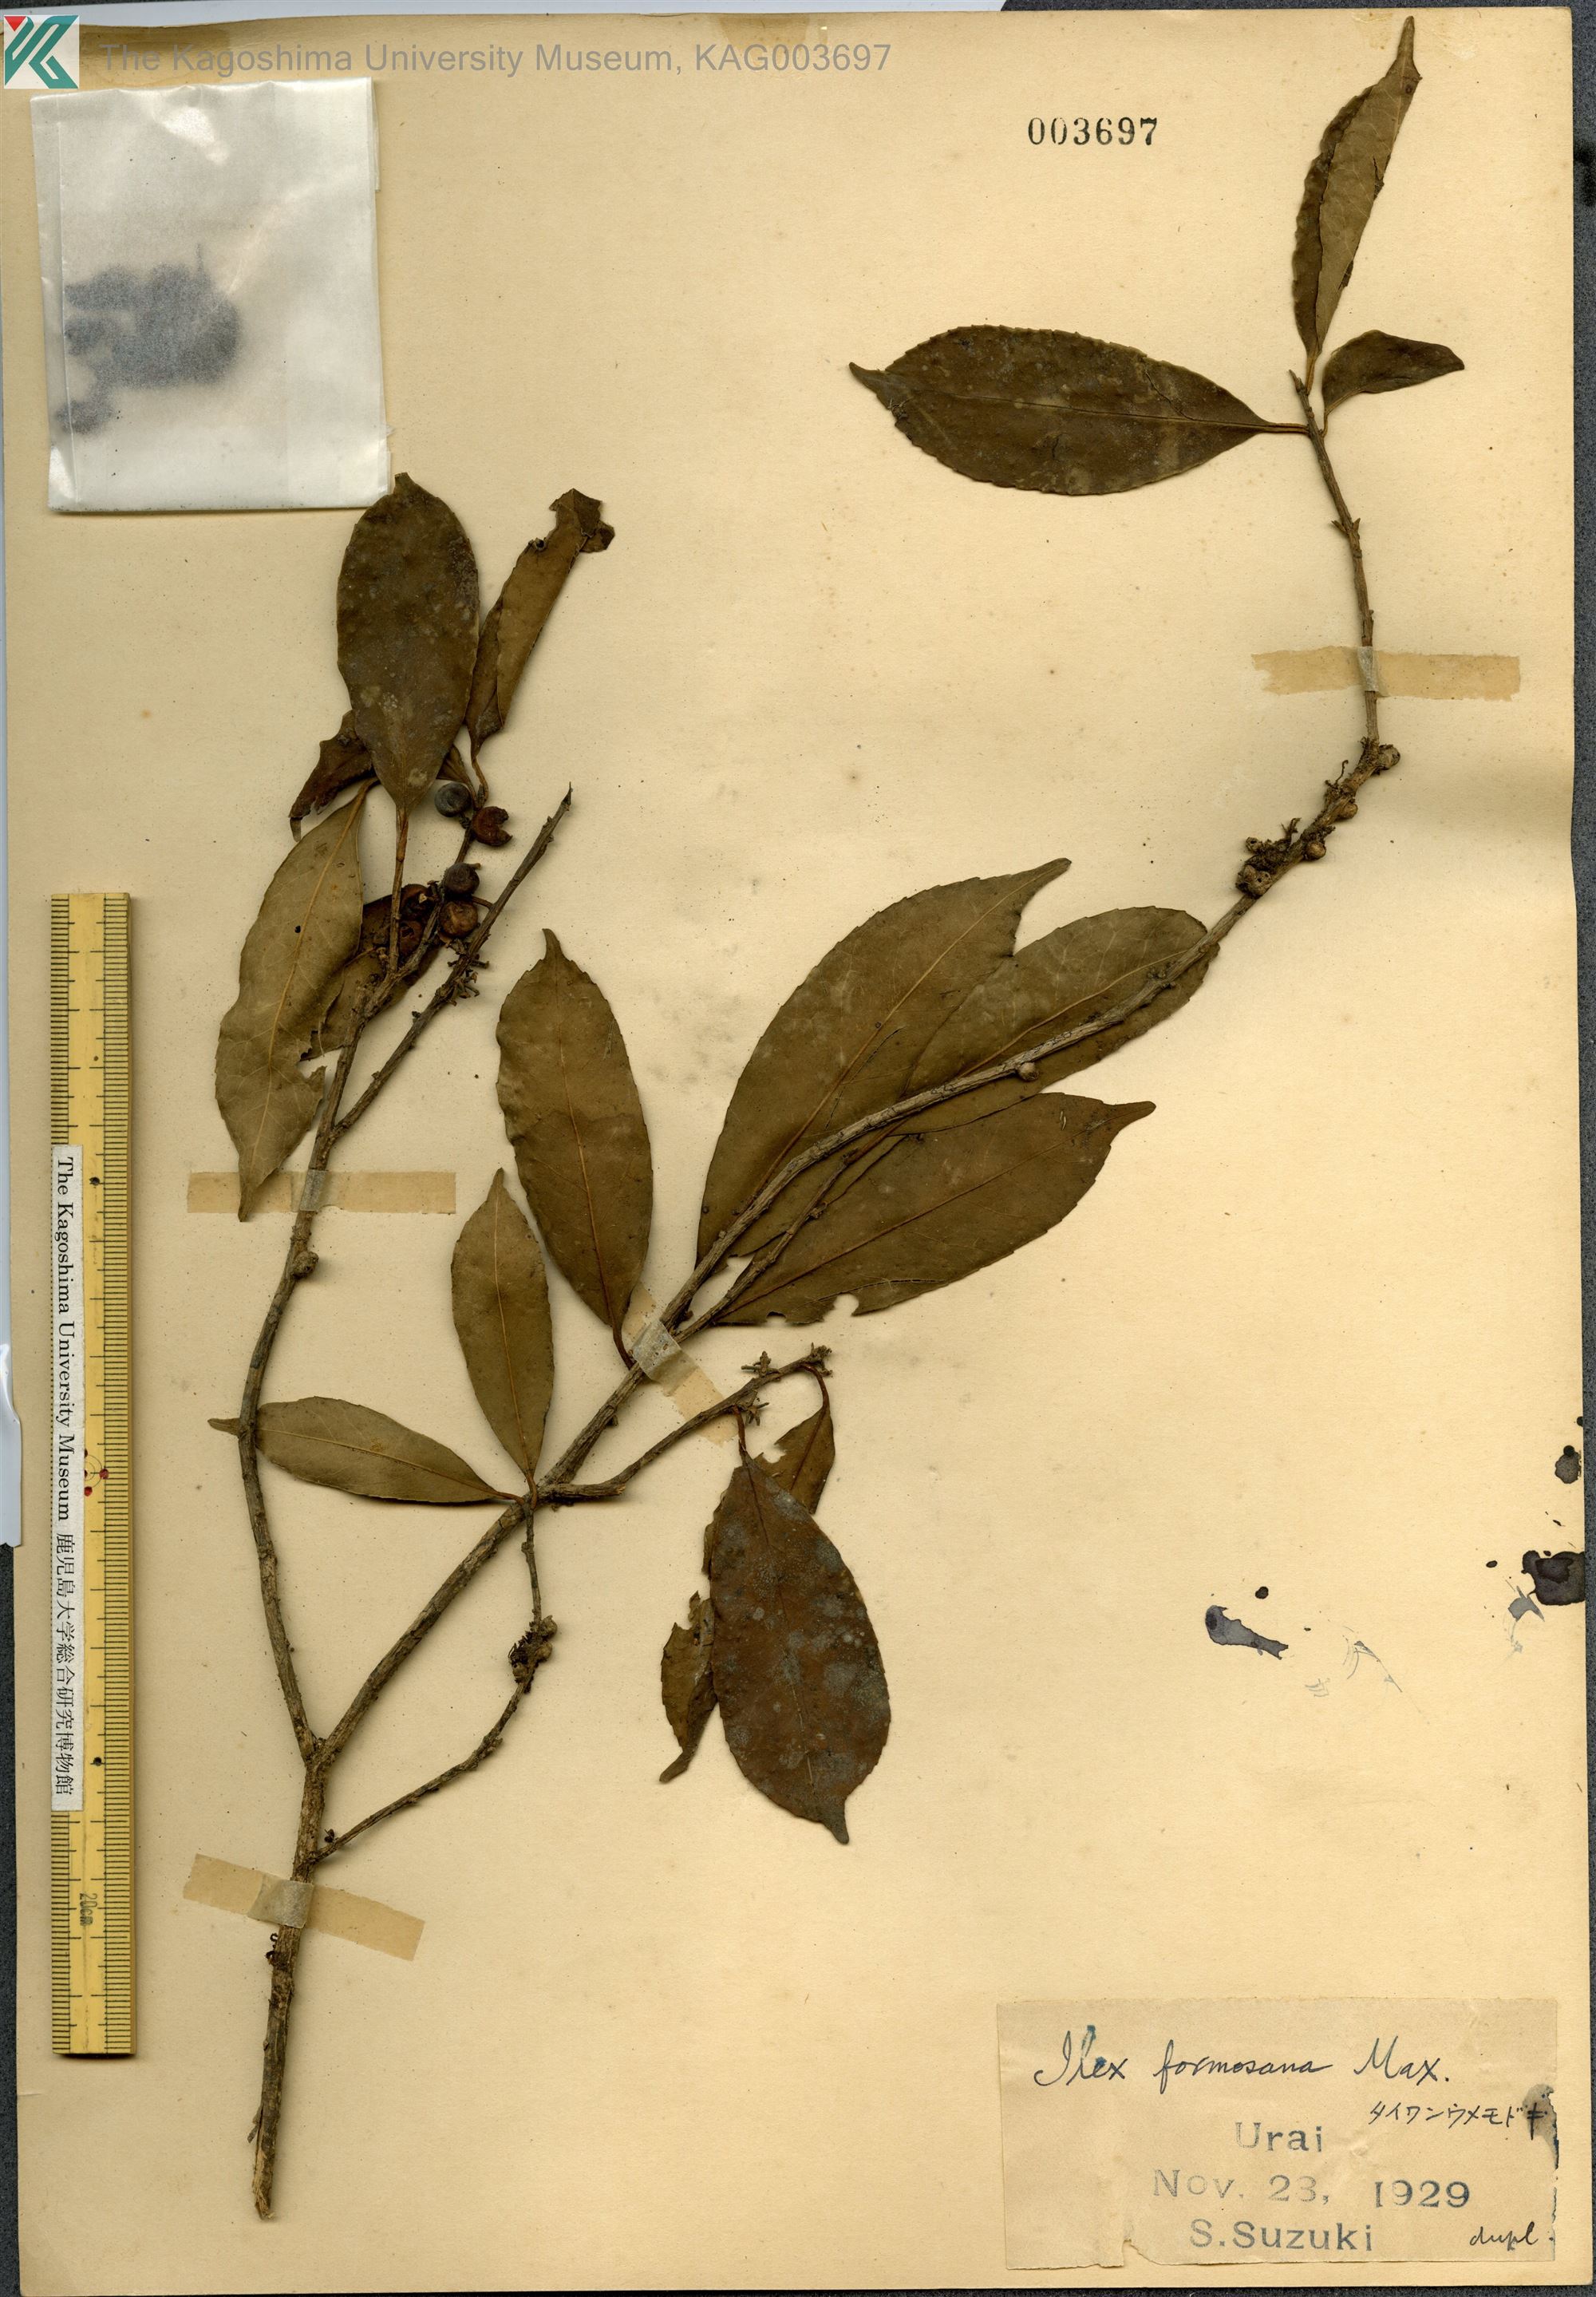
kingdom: Plantae
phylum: Tracheophyta
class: Magnoliopsida
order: Aquifoliales
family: Aquifoliaceae
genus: Ilex
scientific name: Ilex formosana
